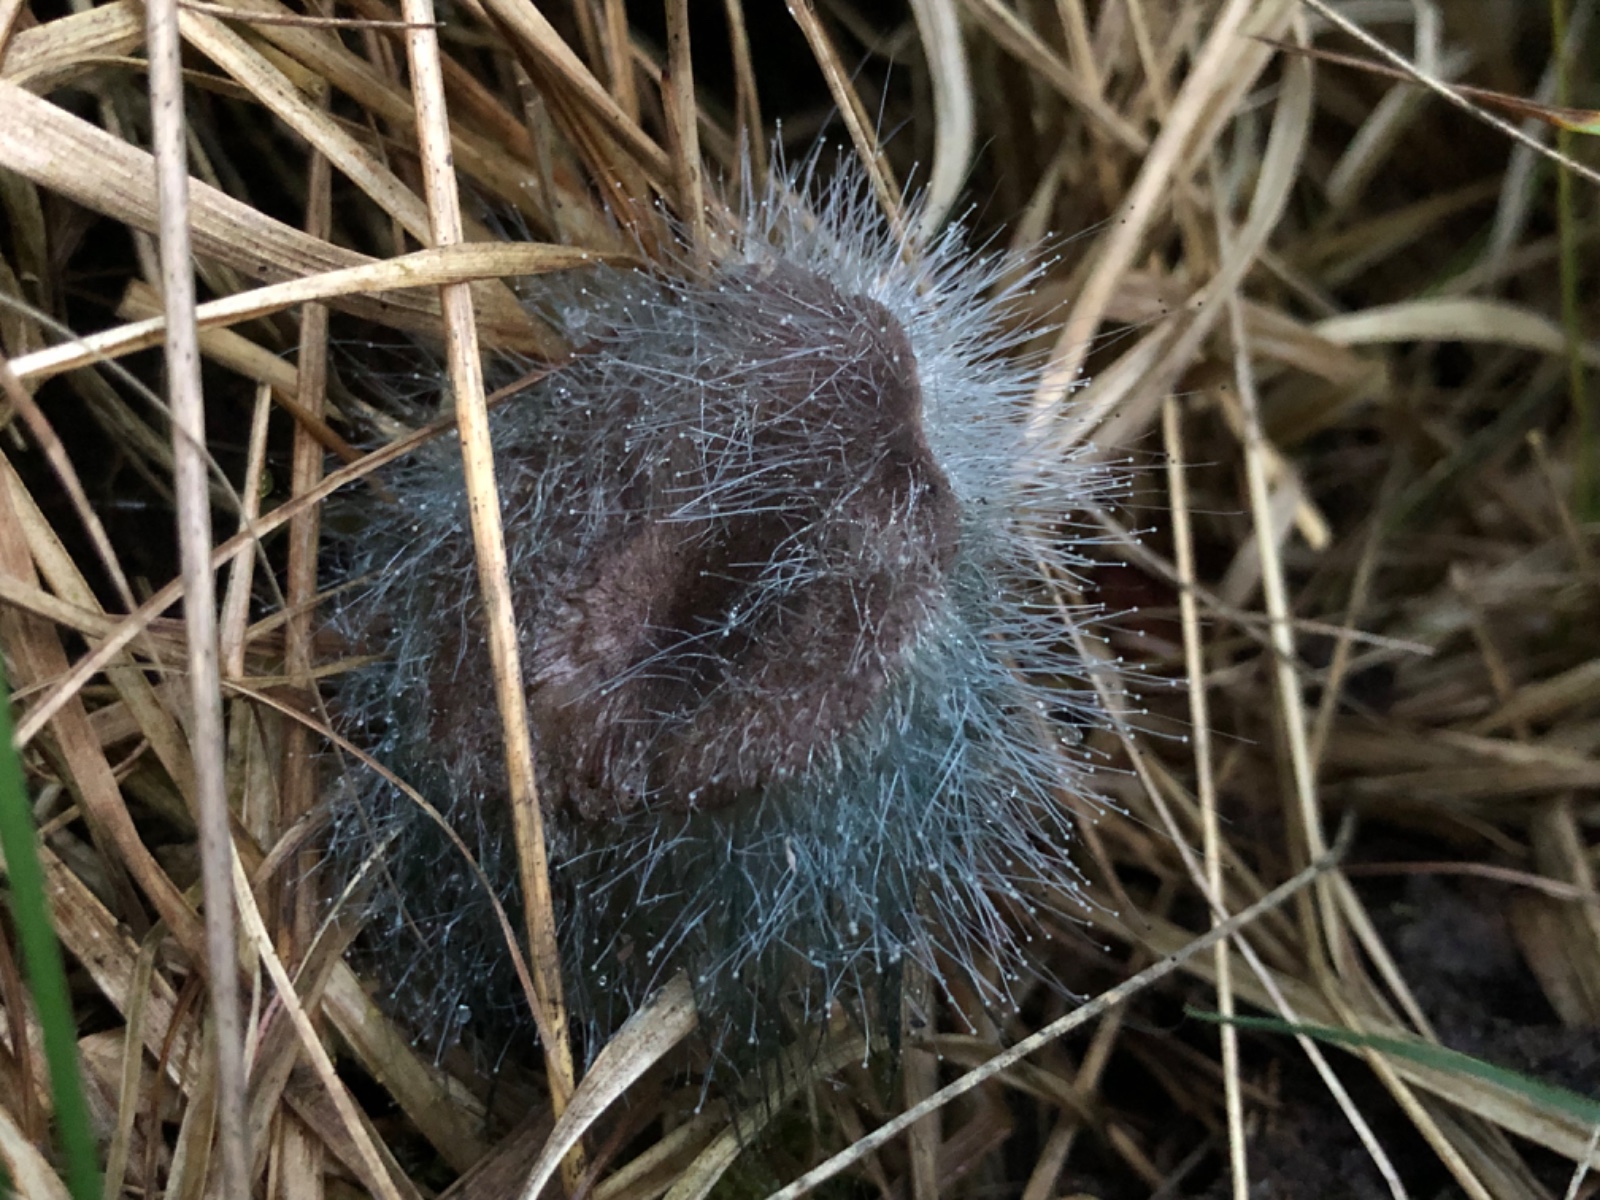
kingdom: Fungi
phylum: Mucoromycota
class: Mucoromycetes
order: Mucorales
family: Phycomycetaceae
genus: Spinellus
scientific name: Spinellus fusiger
